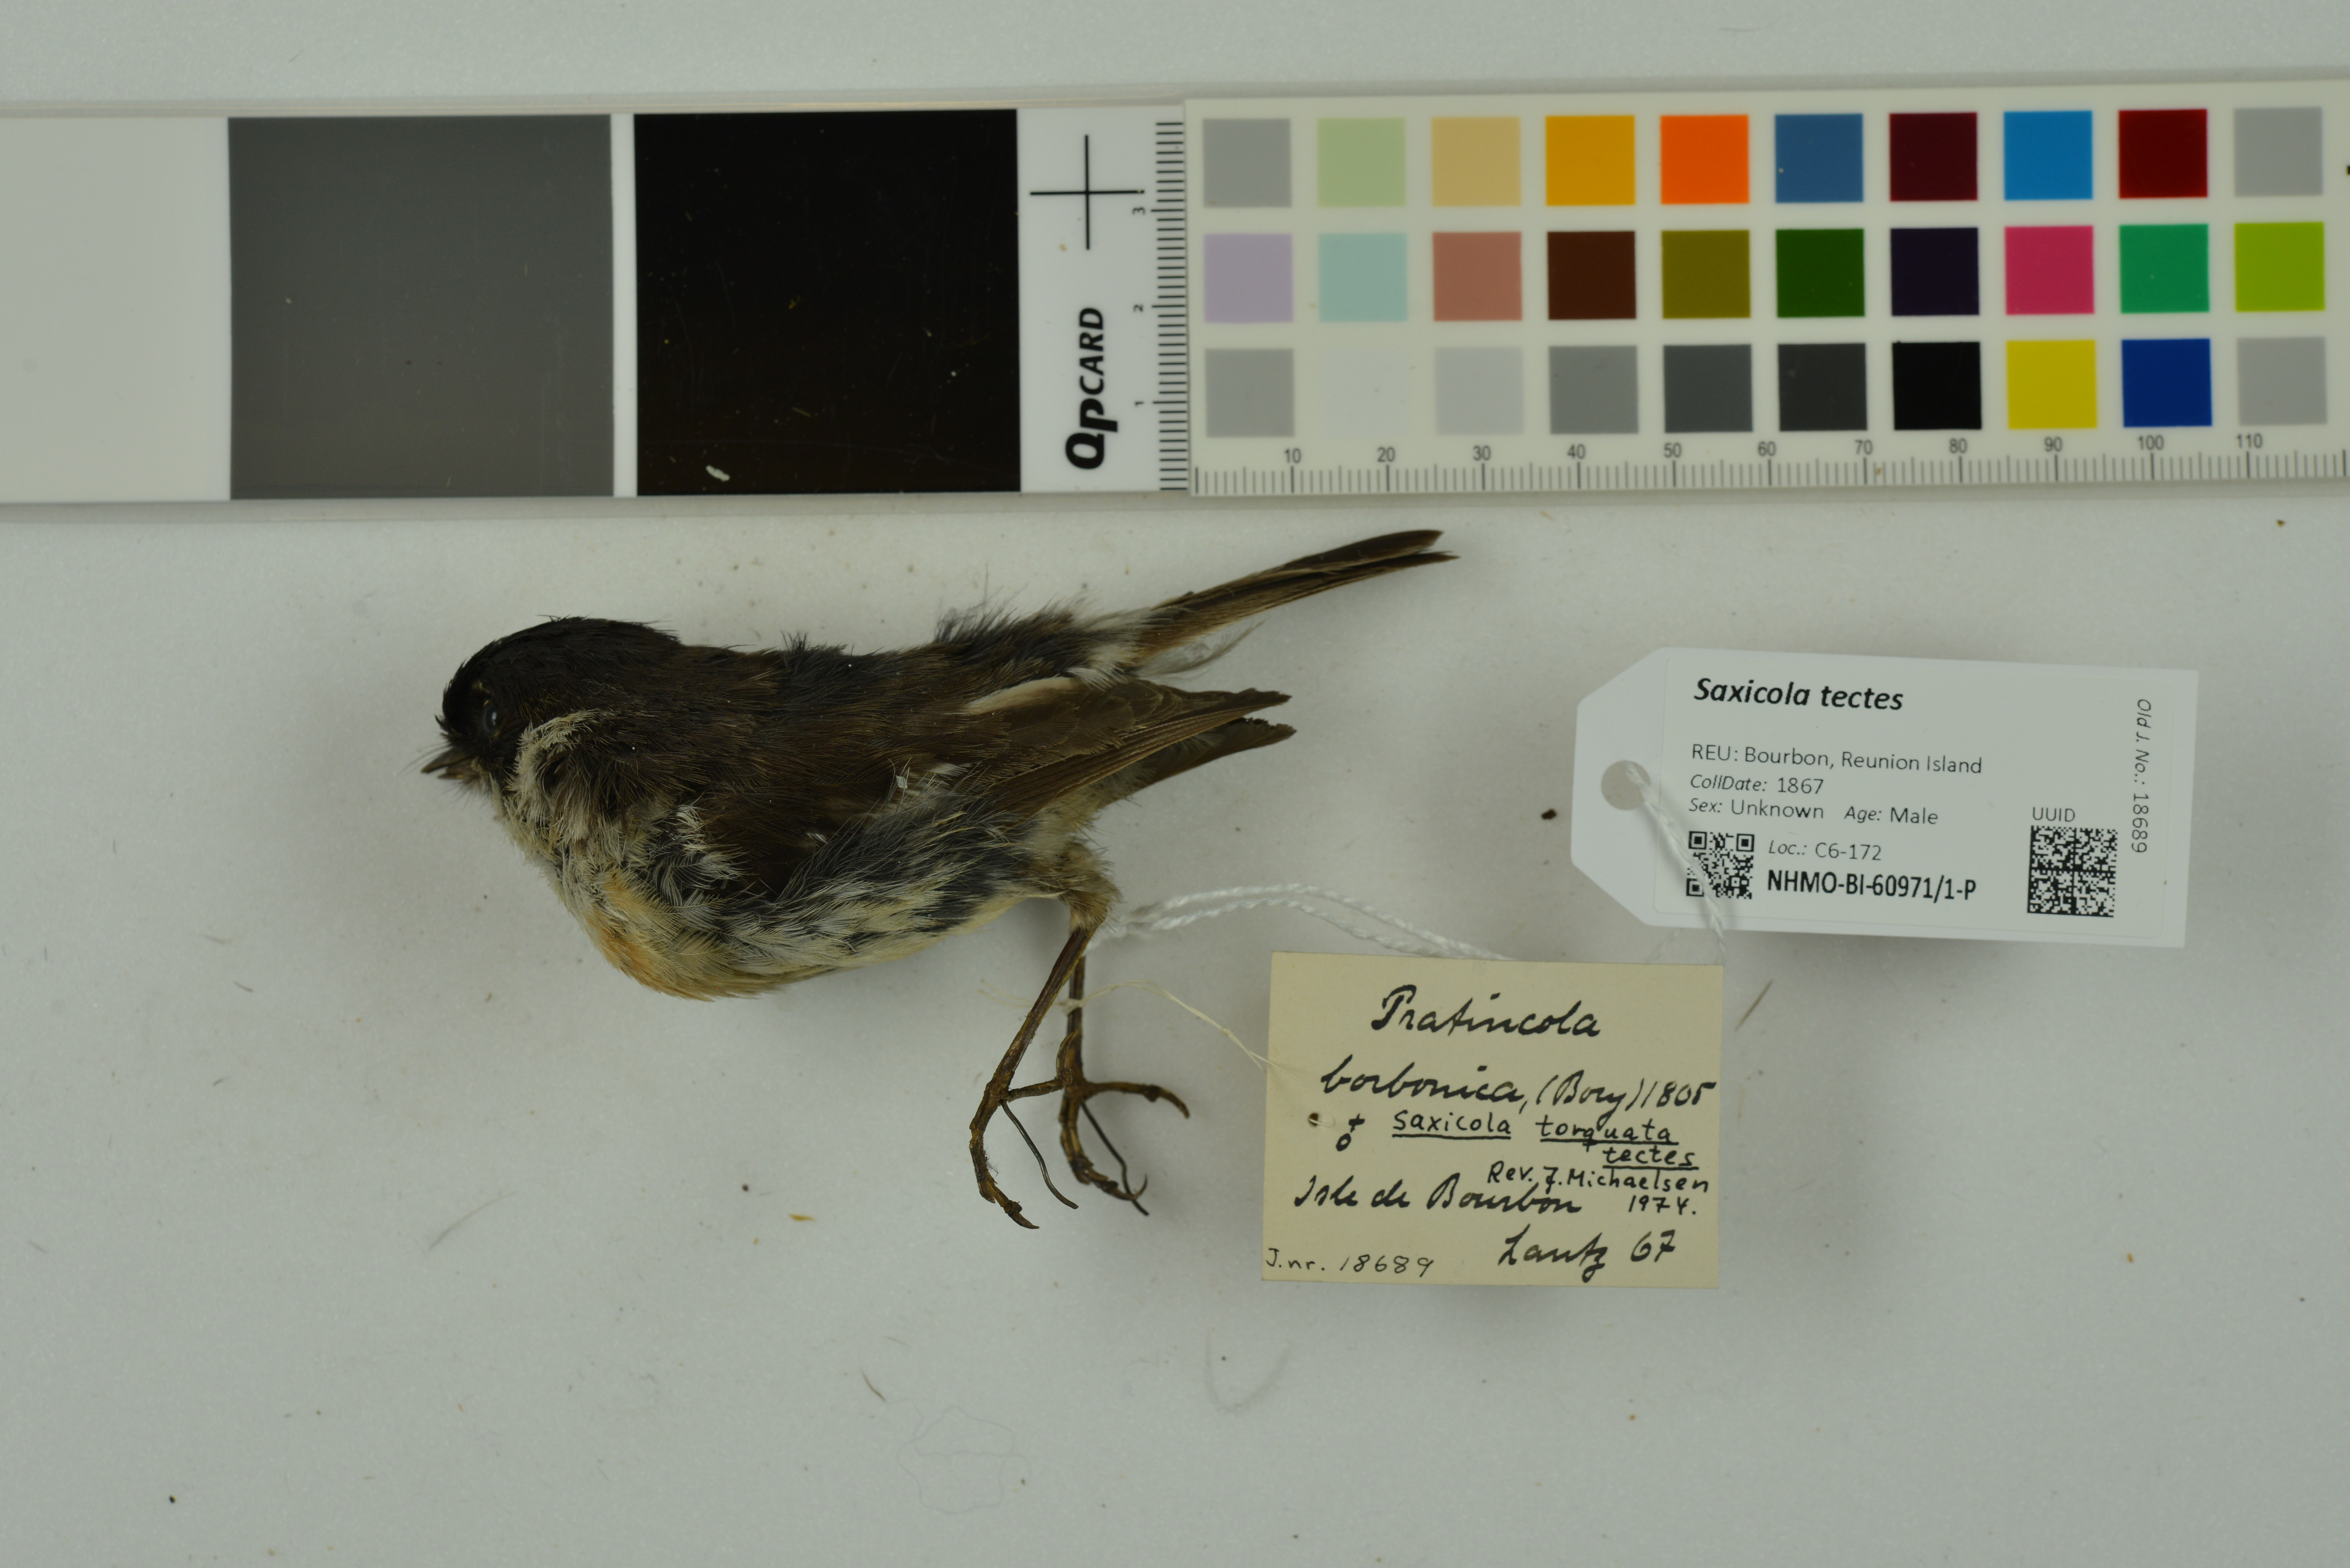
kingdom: Animalia
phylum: Chordata
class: Aves
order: Passeriformes
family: Muscicapidae
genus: Saxicola
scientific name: Saxicola tectes
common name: Reunion stonechat
